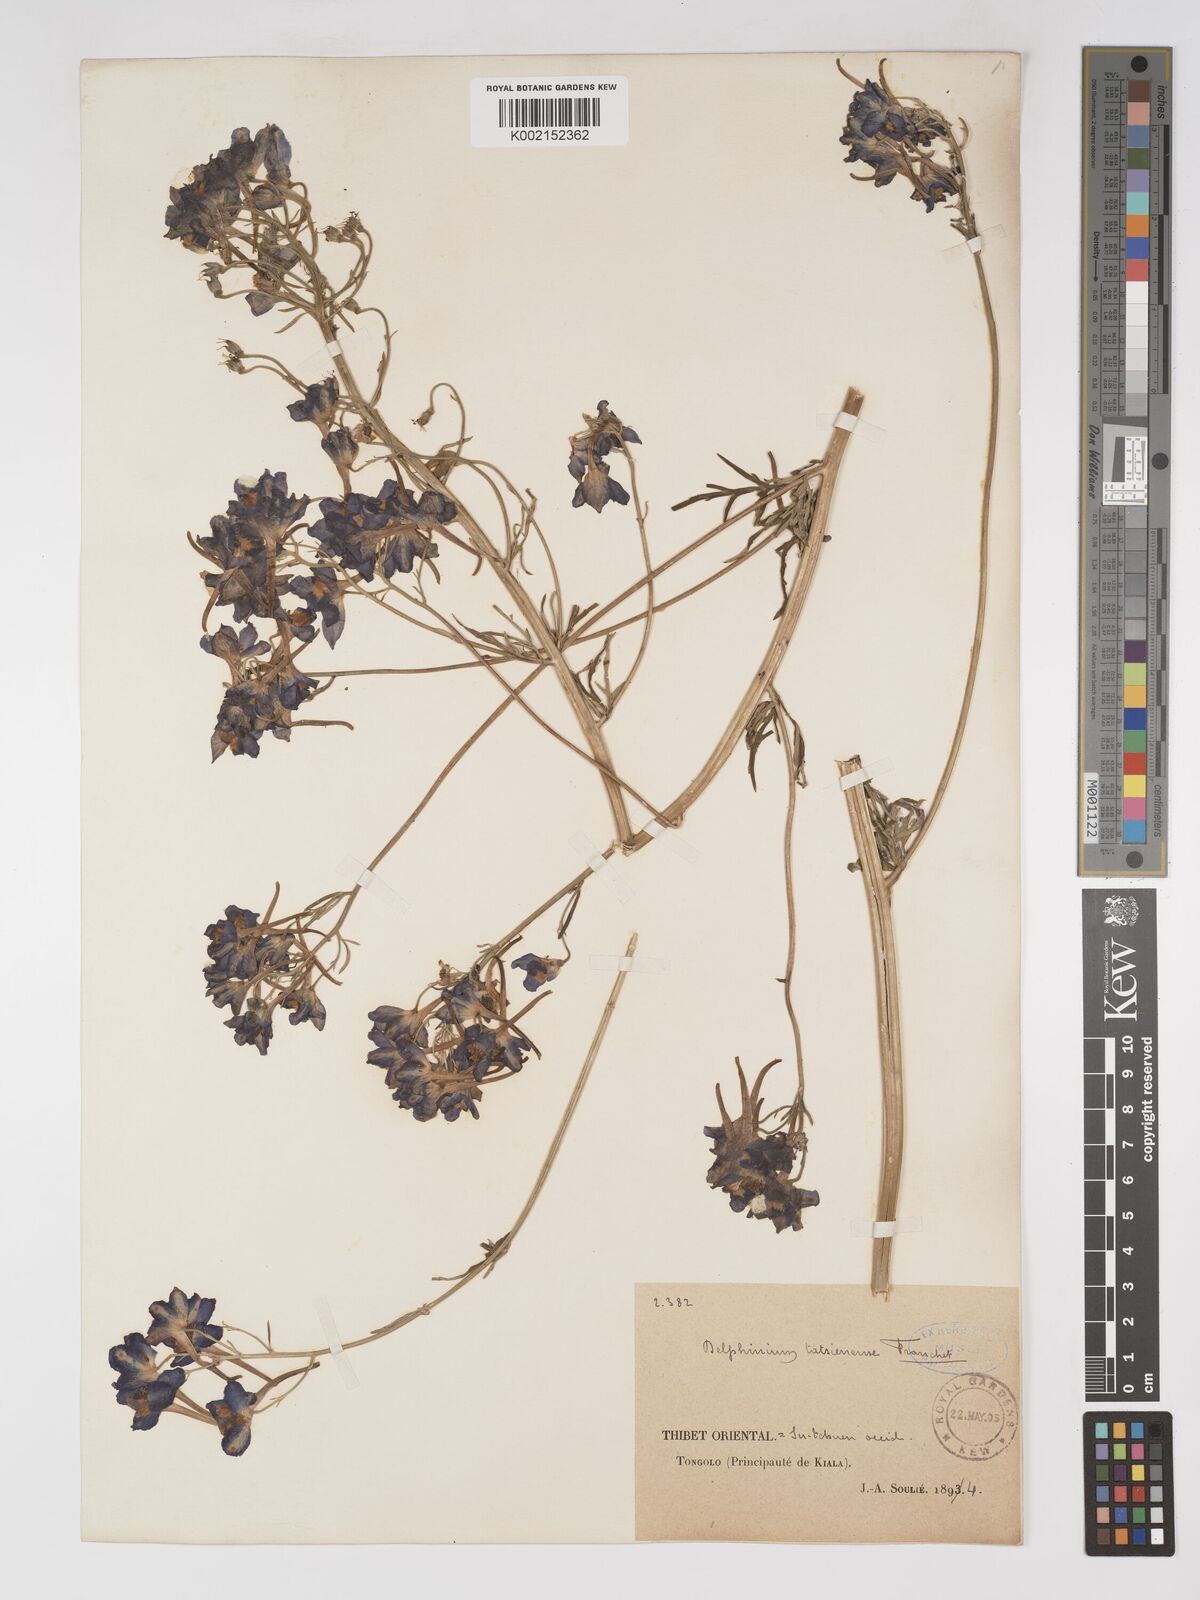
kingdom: Plantae
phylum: Tracheophyta
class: Magnoliopsida
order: Ranunculales
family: Ranunculaceae
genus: Delphinium
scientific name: Delphinium tatsienense
